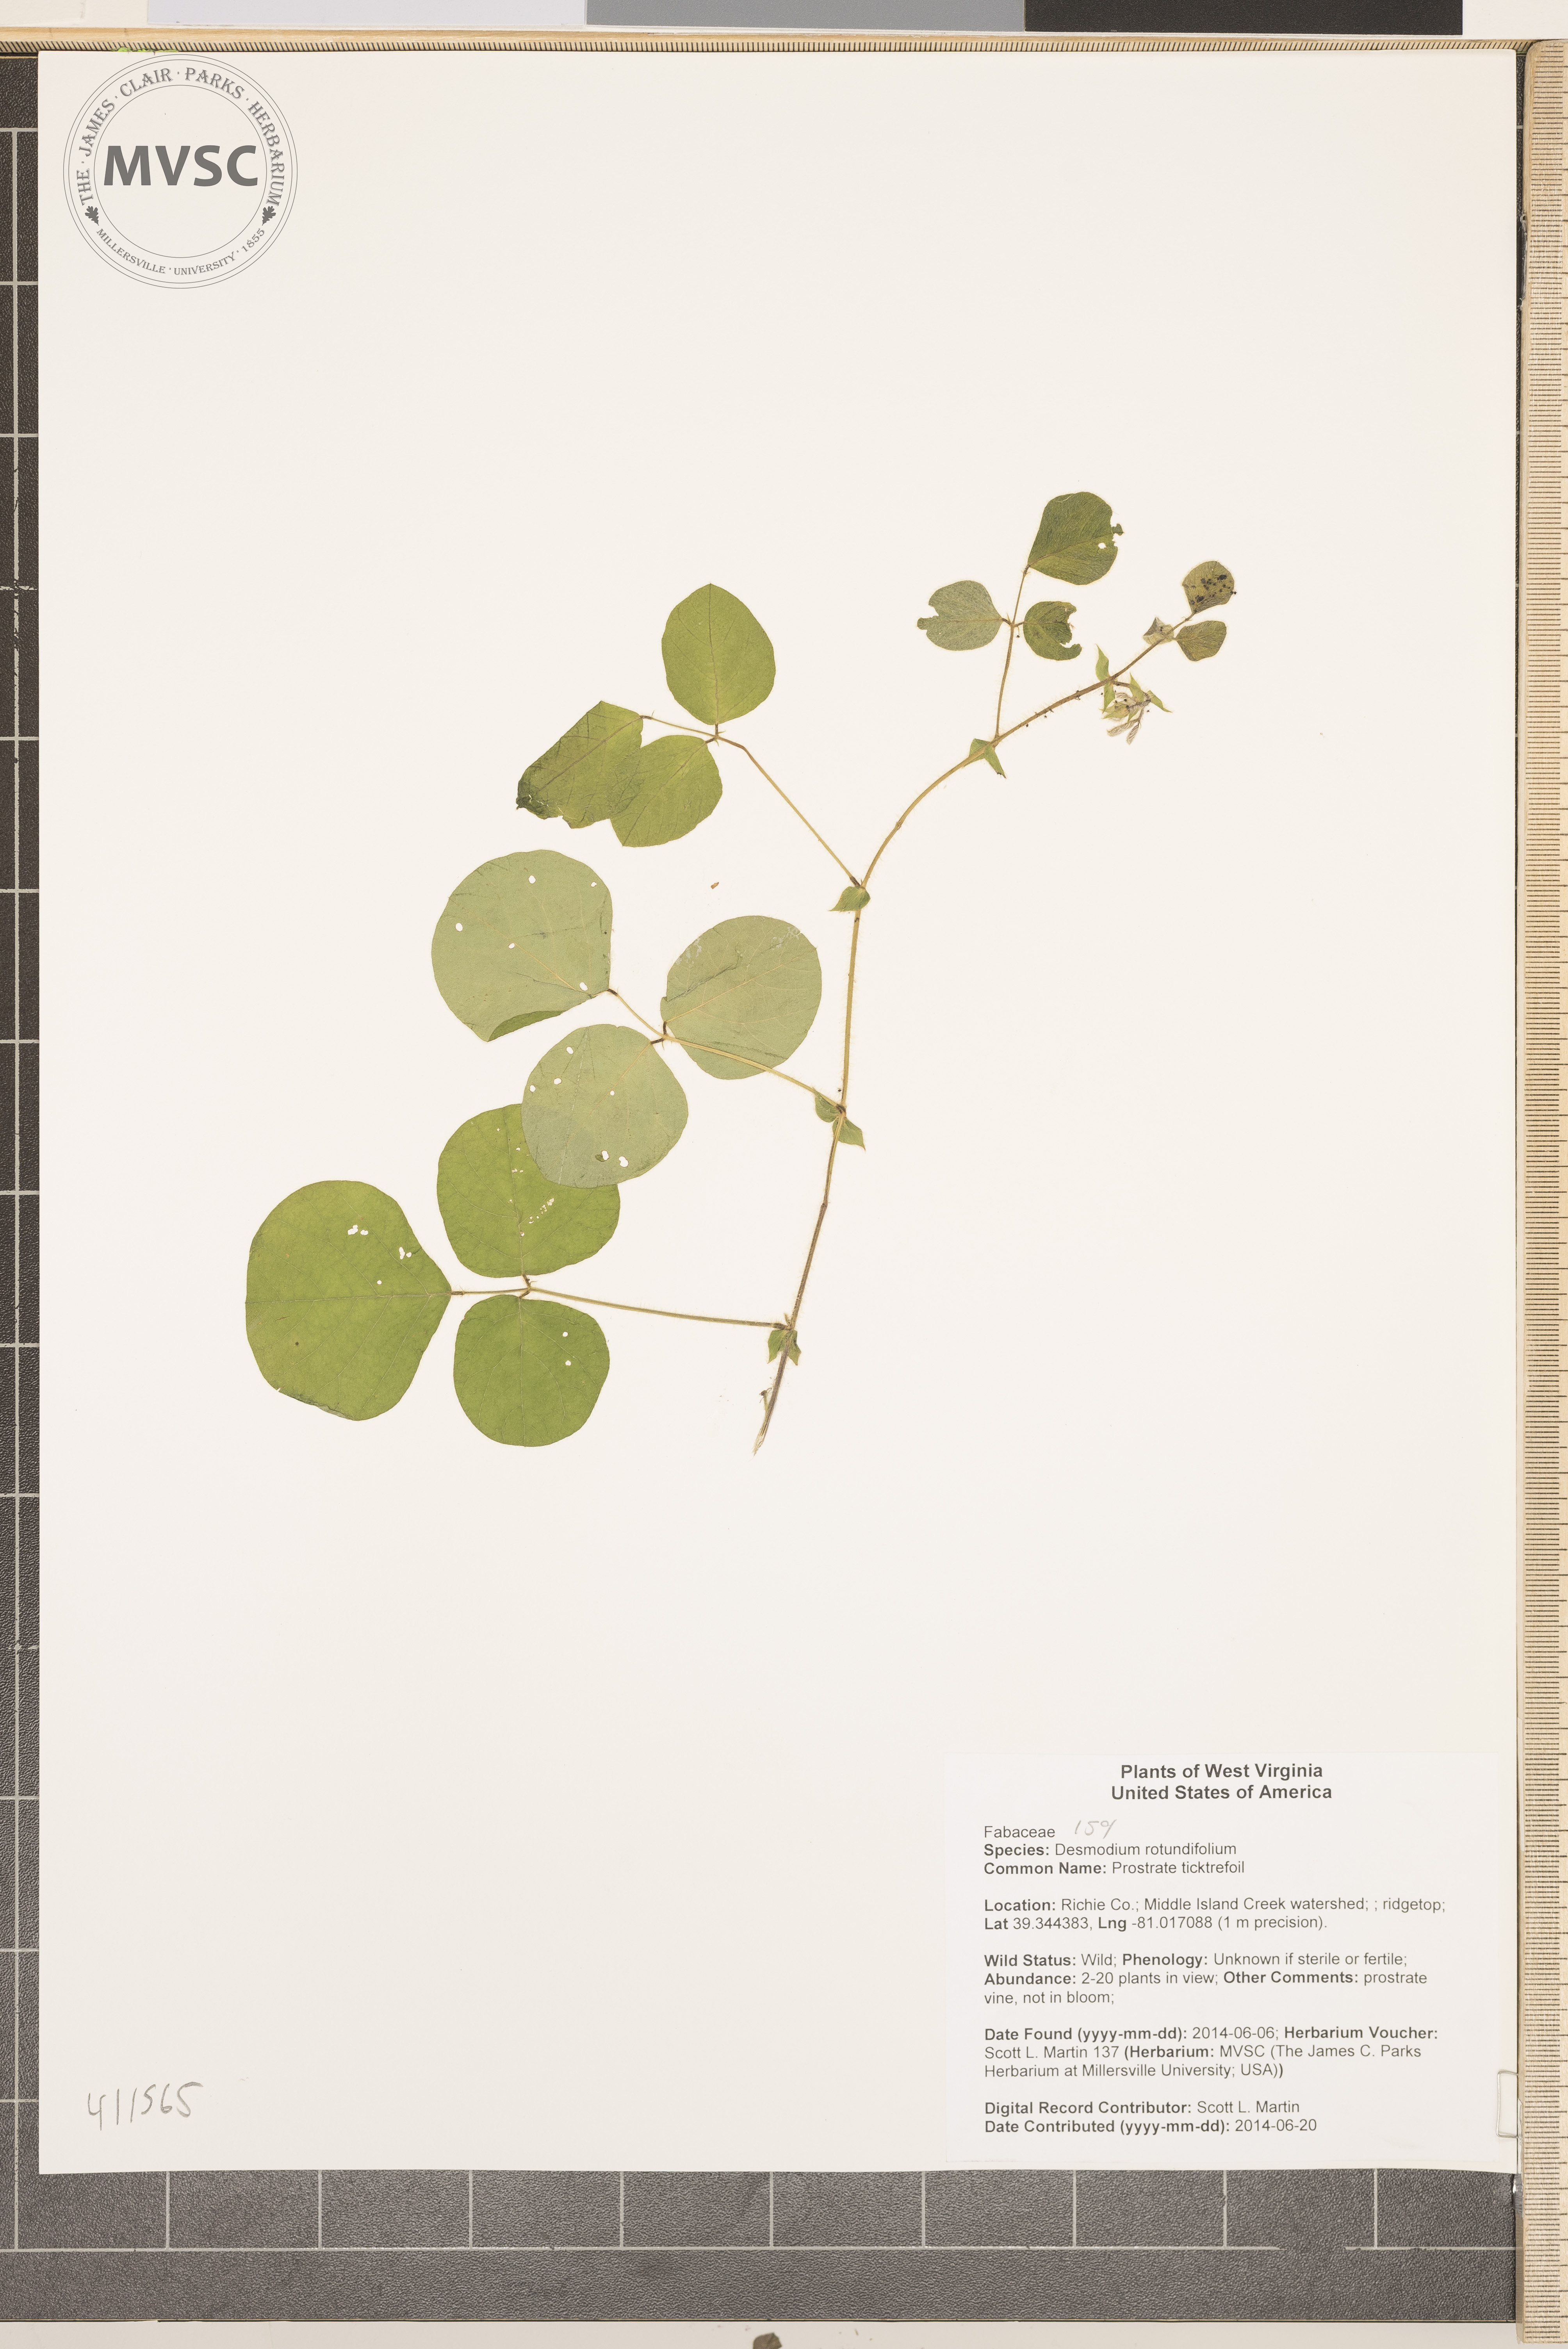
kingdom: Plantae
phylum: Tracheophyta
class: Magnoliopsida
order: Fabales
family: Fabaceae
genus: Desmodium
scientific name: Desmodium rotundifolium
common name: Prostrate ticktrefoil
